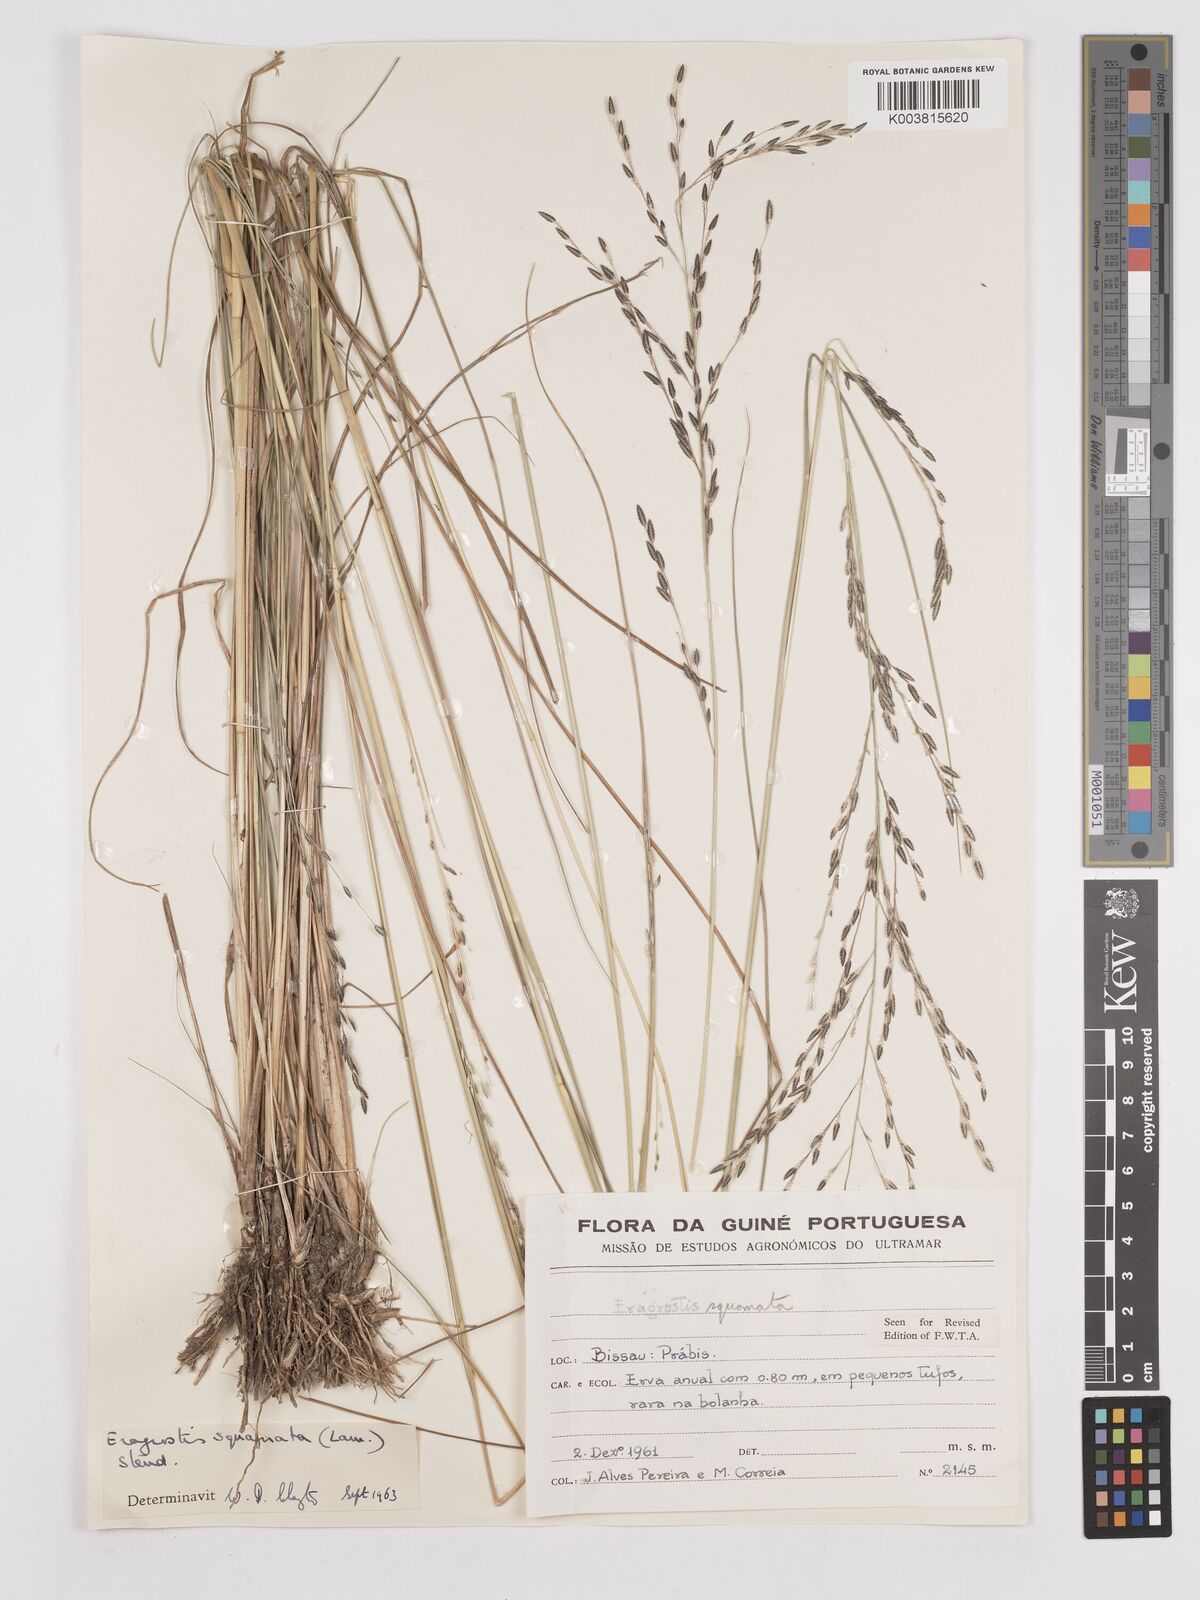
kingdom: Plantae
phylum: Tracheophyta
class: Liliopsida
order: Poales
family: Poaceae
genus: Eragrostis
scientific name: Eragrostis squamata
